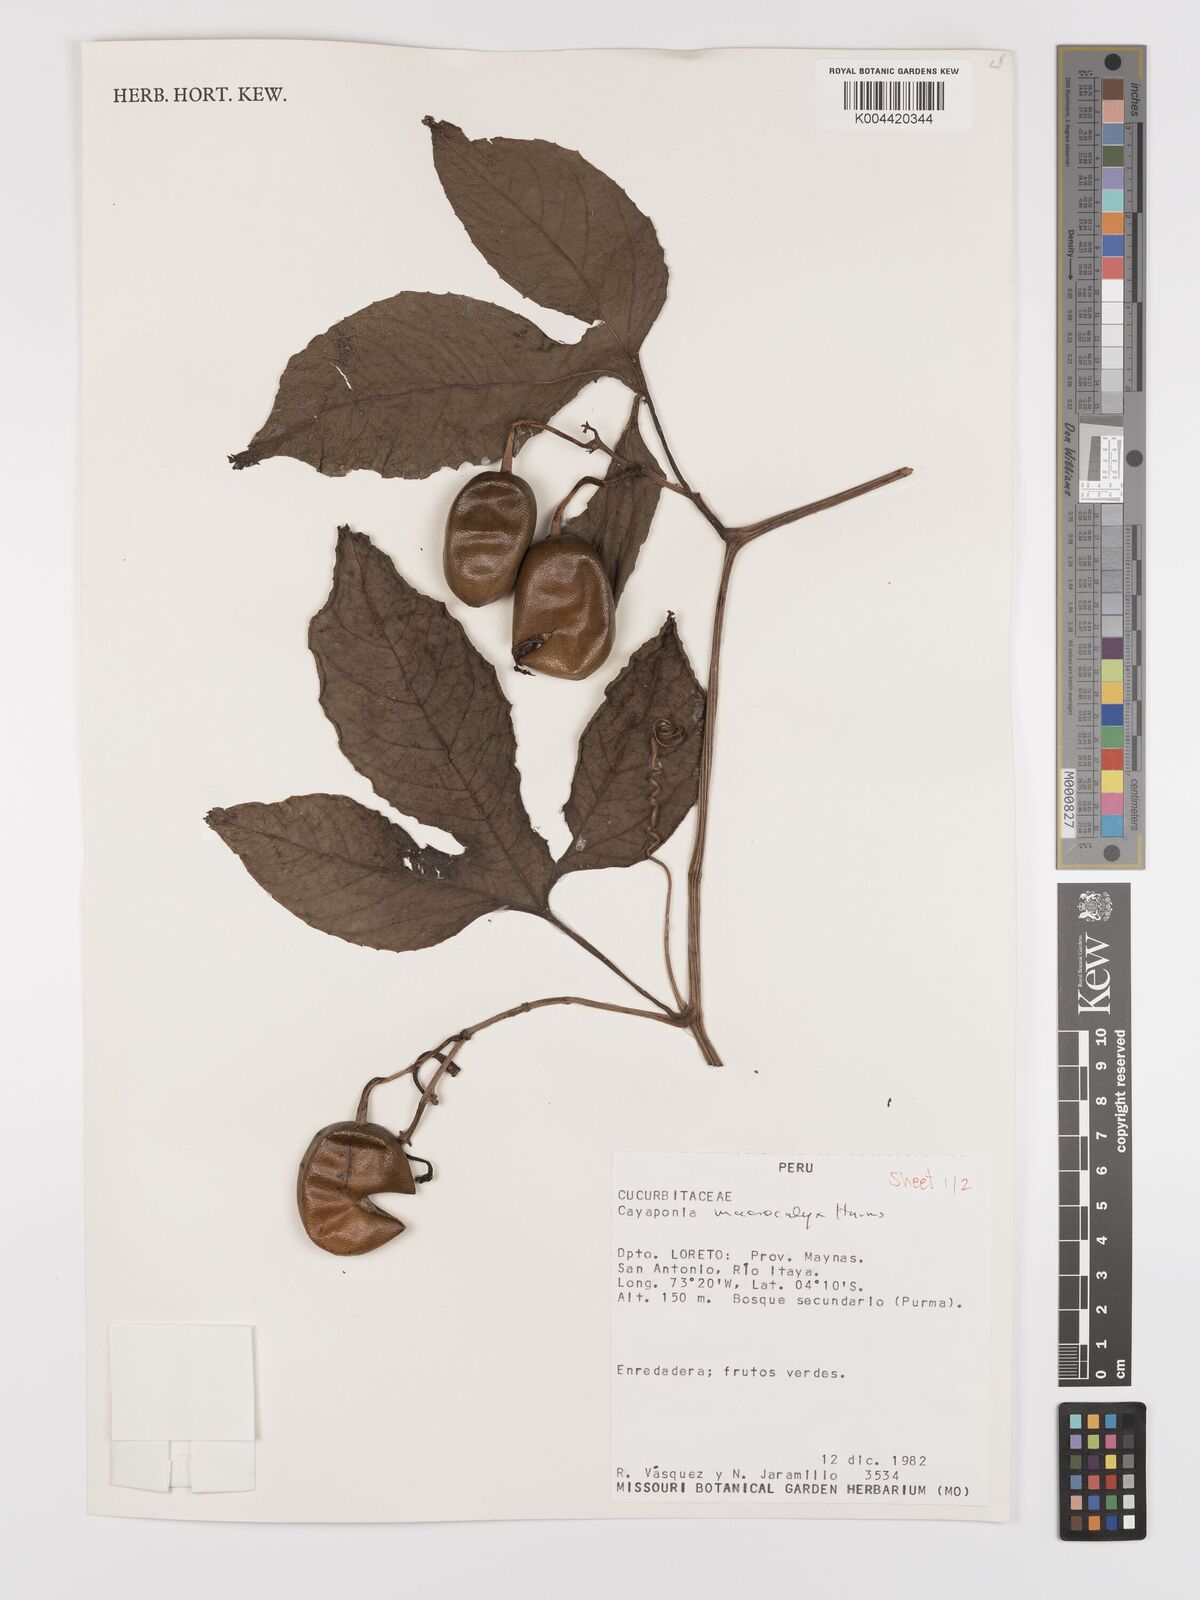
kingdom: Plantae
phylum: Tracheophyta
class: Magnoliopsida
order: Cucurbitales
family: Cucurbitaceae
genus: Cayaponia
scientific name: Cayaponia macrocalyx
